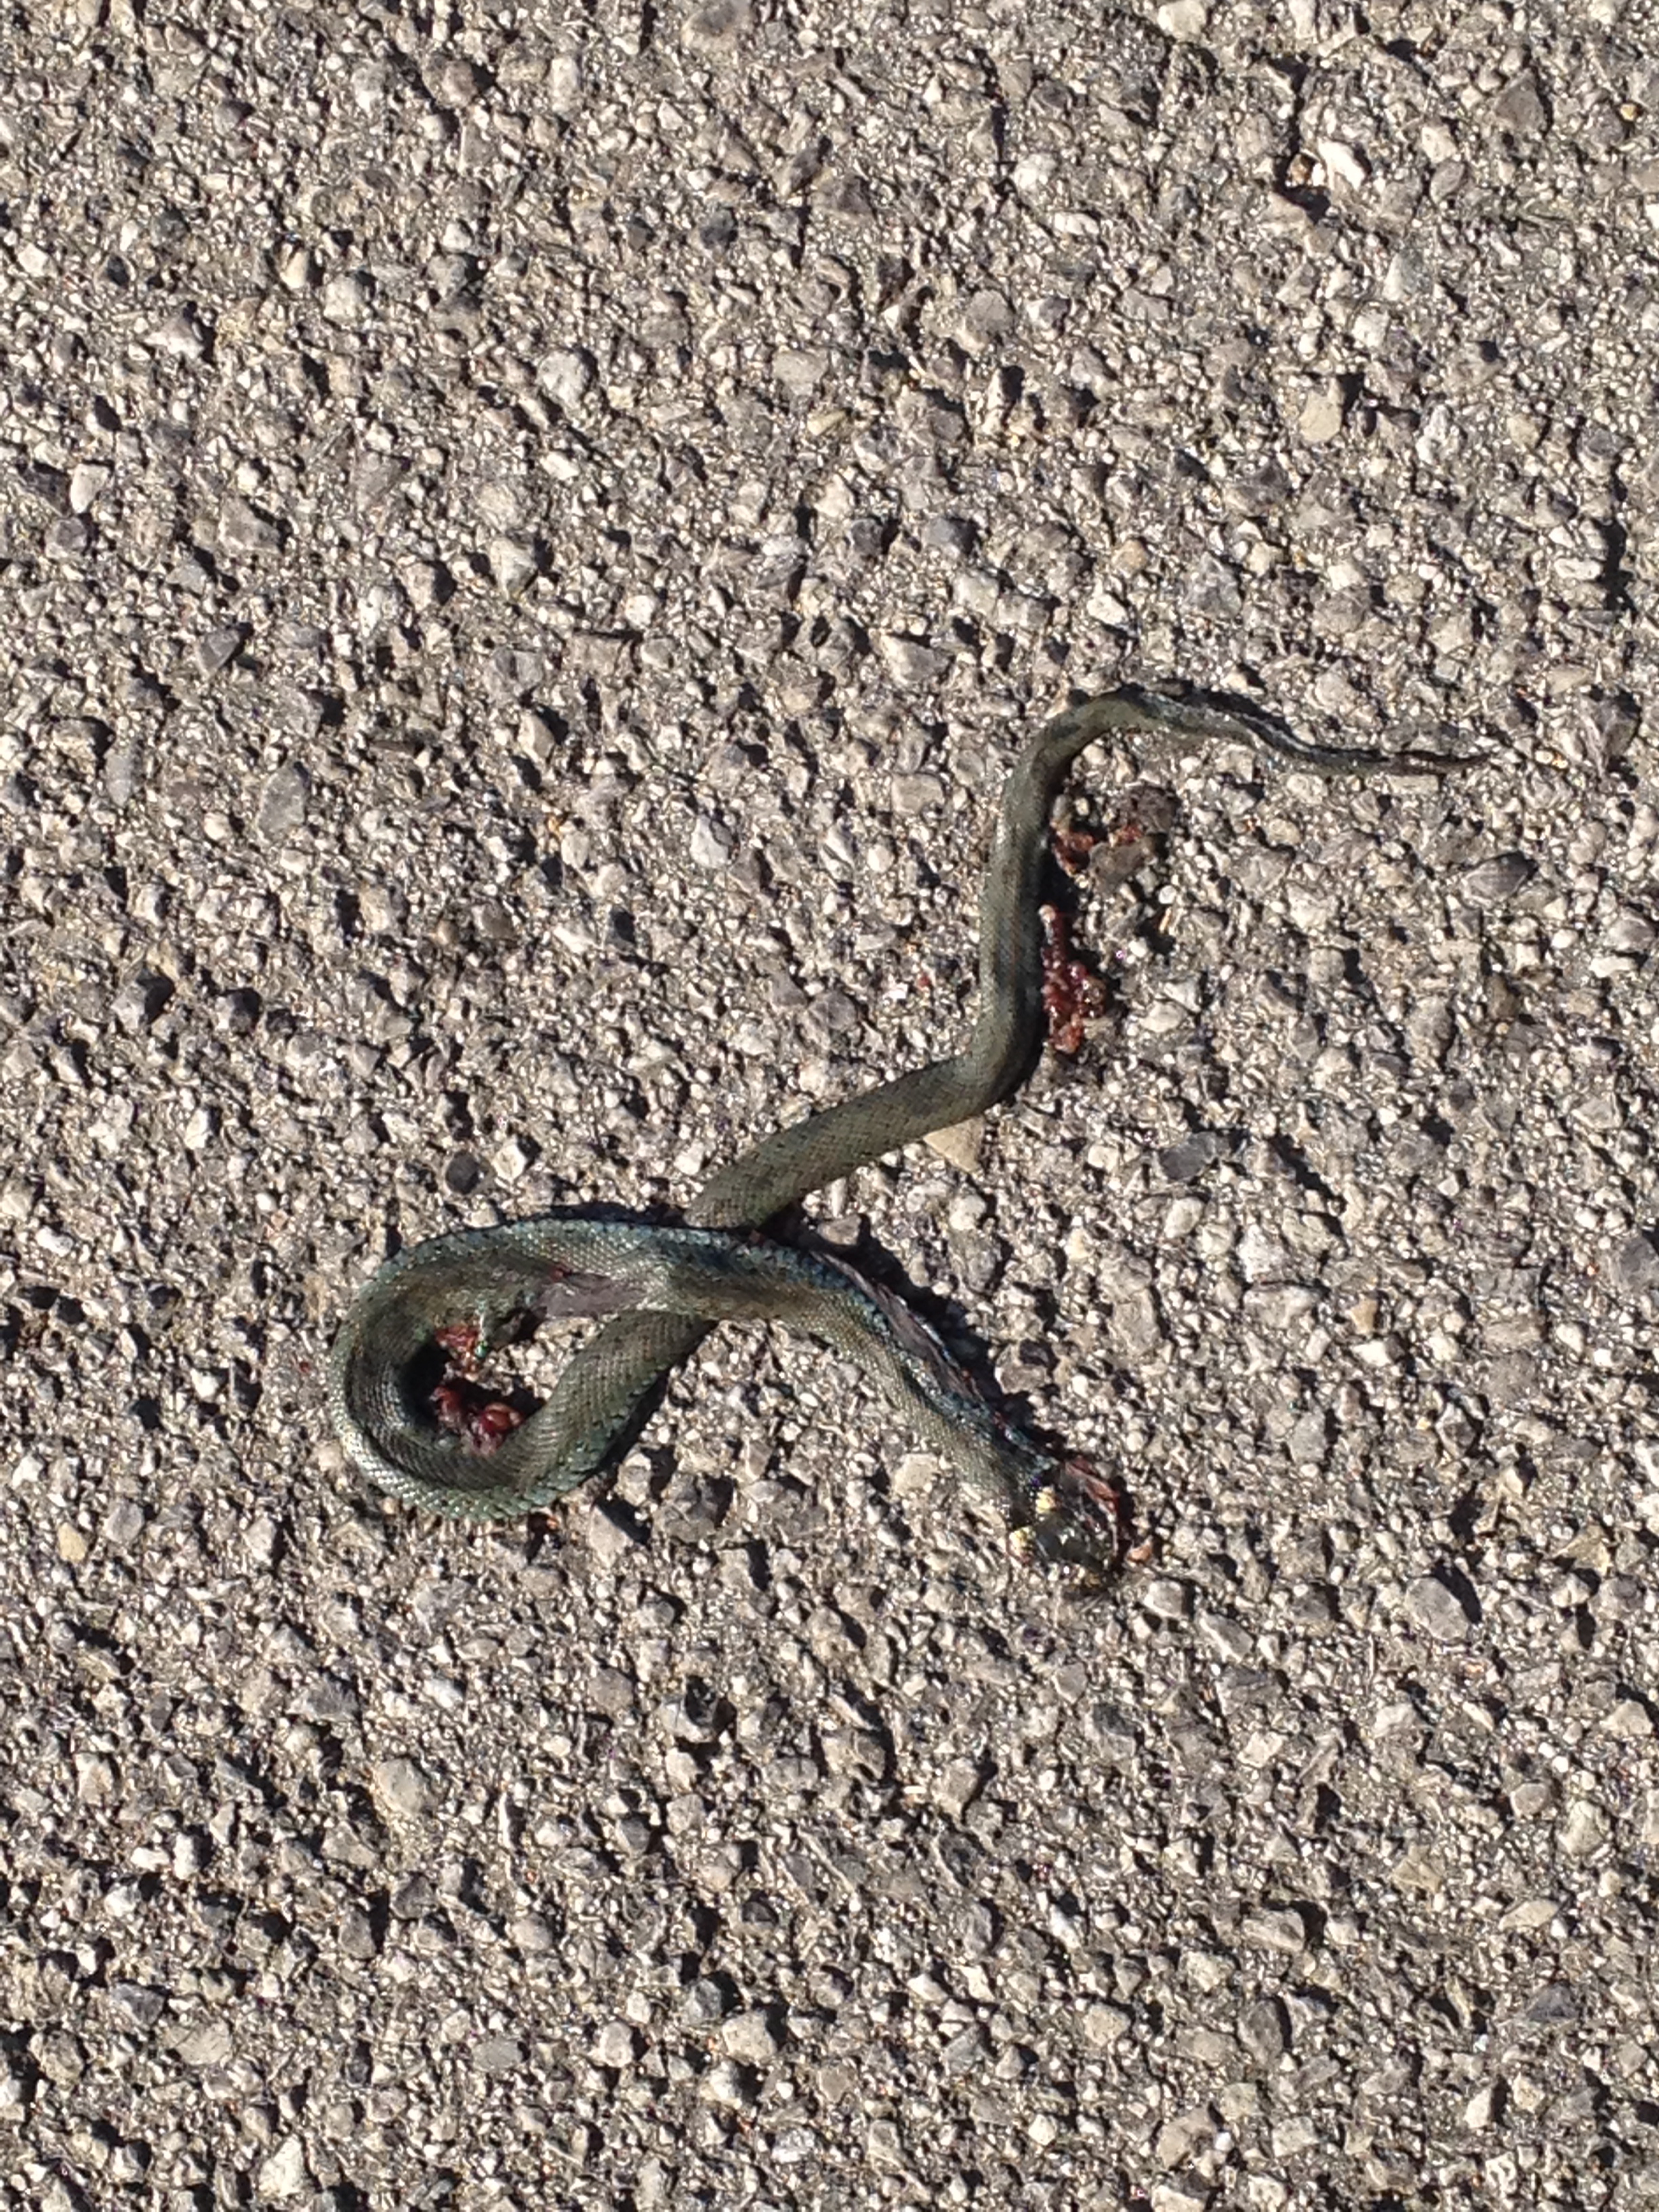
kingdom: Animalia
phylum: Chordata
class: Squamata
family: Colubridae
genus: Natrix
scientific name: Natrix natrix
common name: Grass snake
